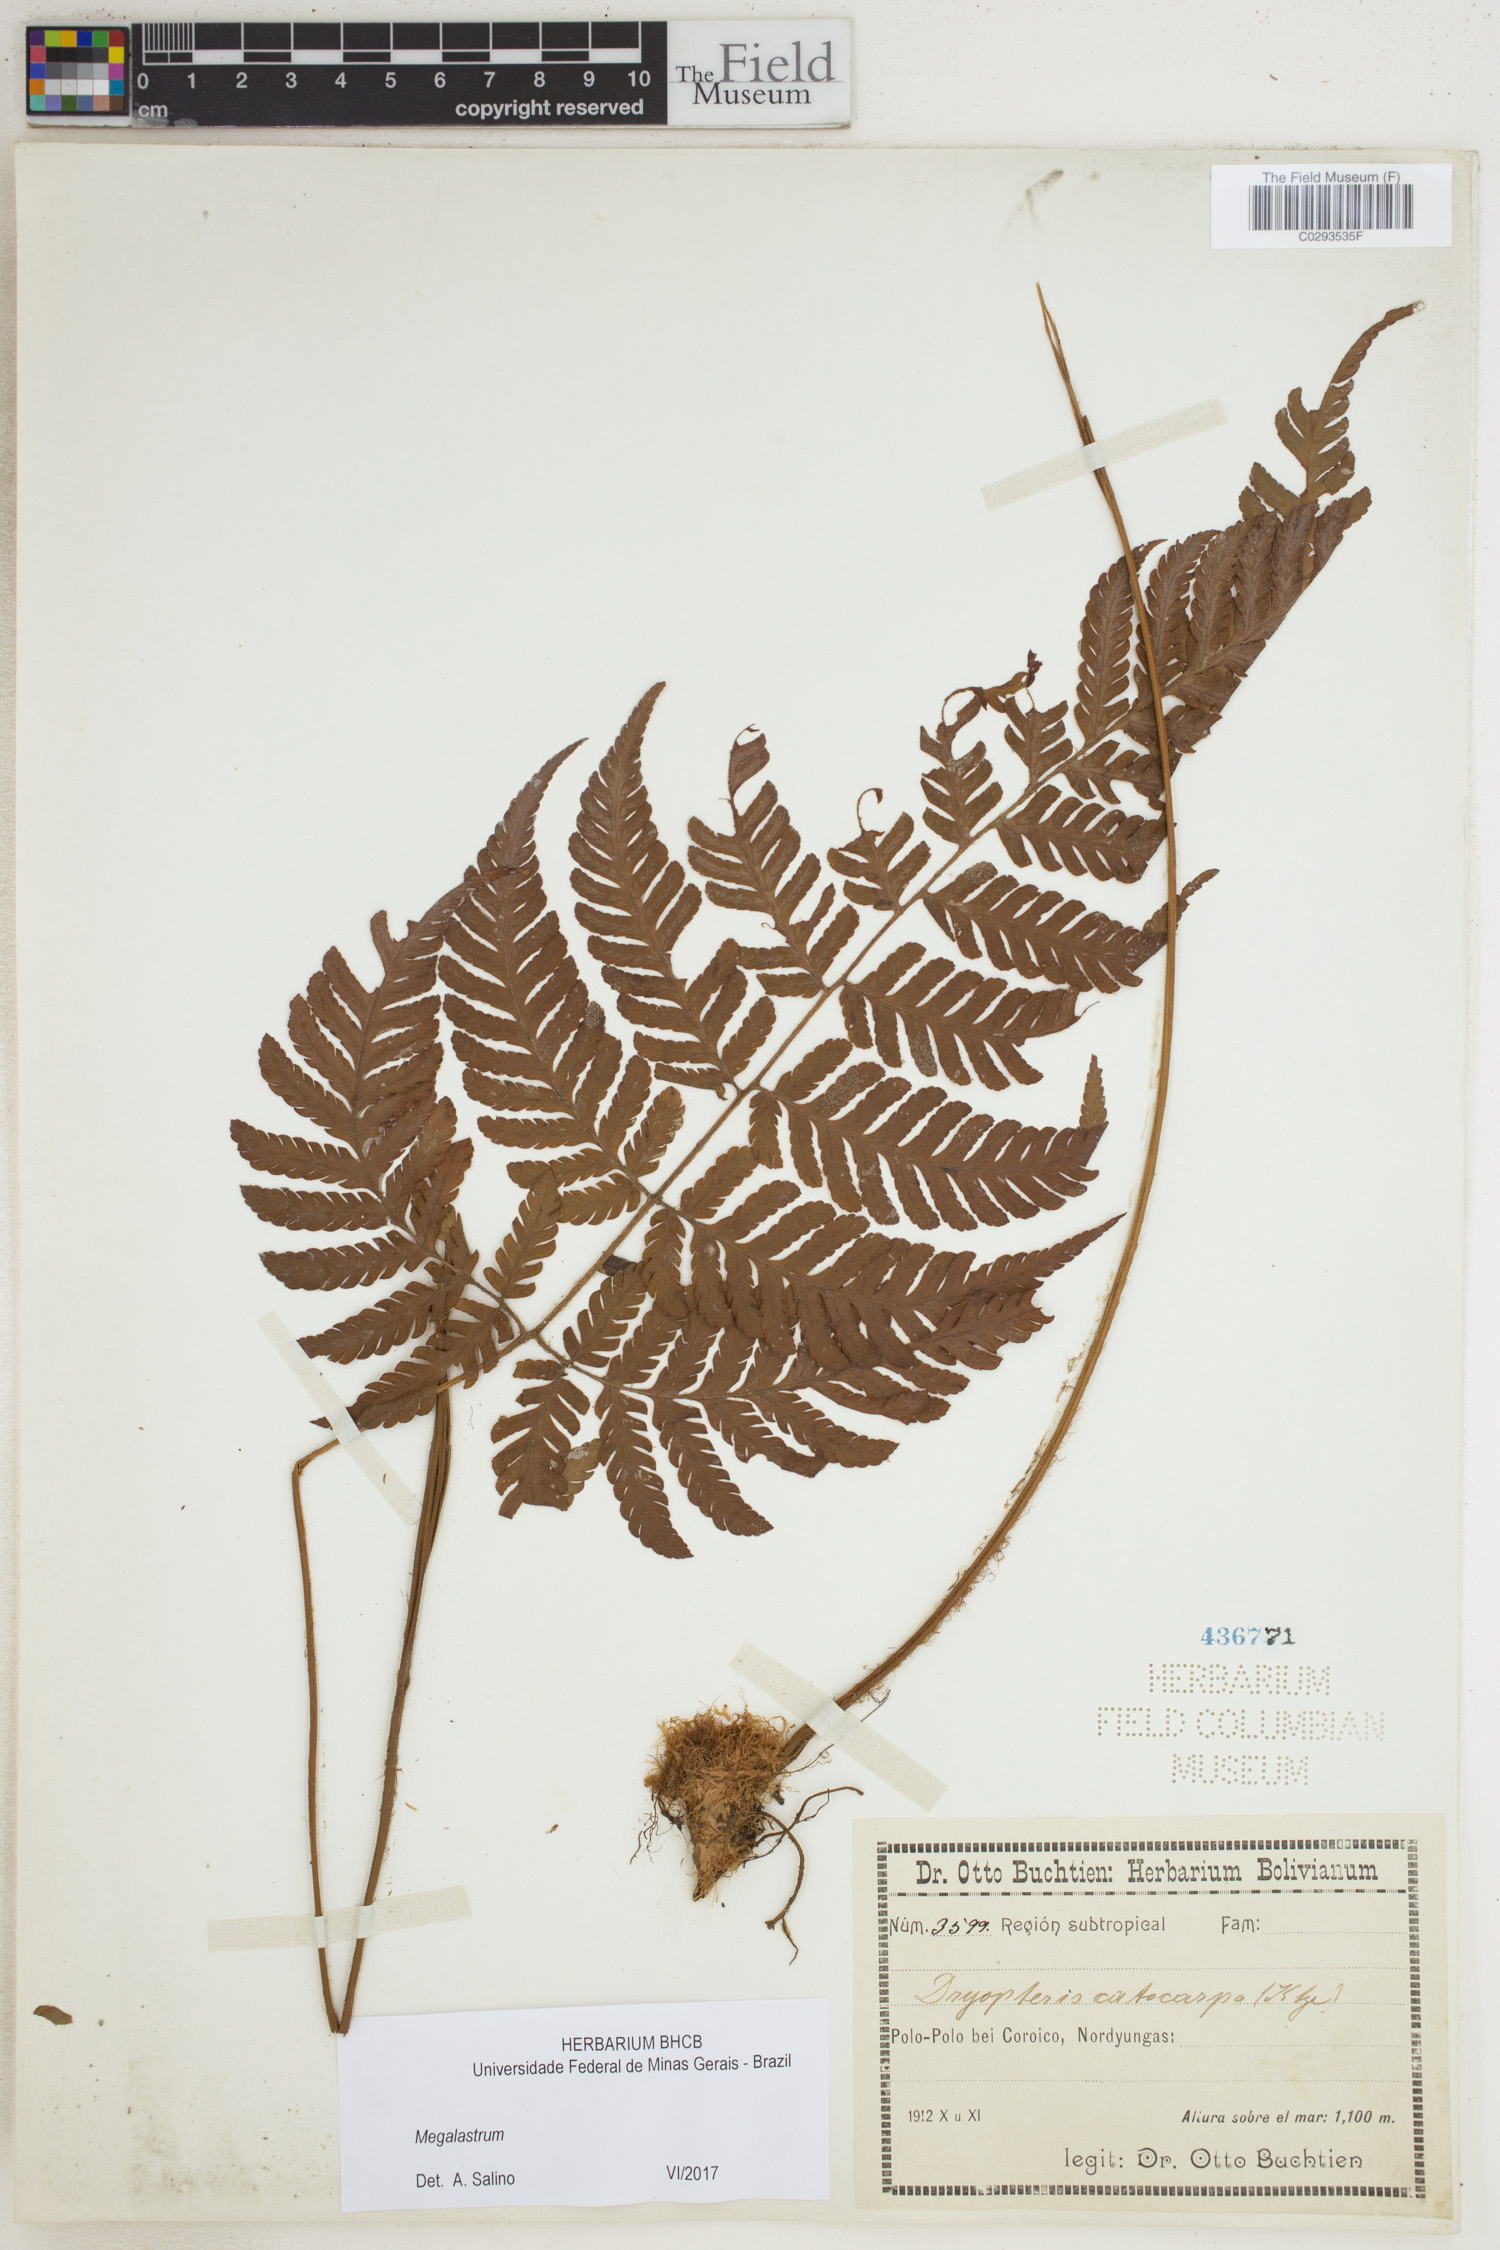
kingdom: Plantae
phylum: Tracheophyta
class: Polypodiopsida
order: Polypodiales
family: Dryopteridaceae
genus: Megalastrum
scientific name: Megalastrum
